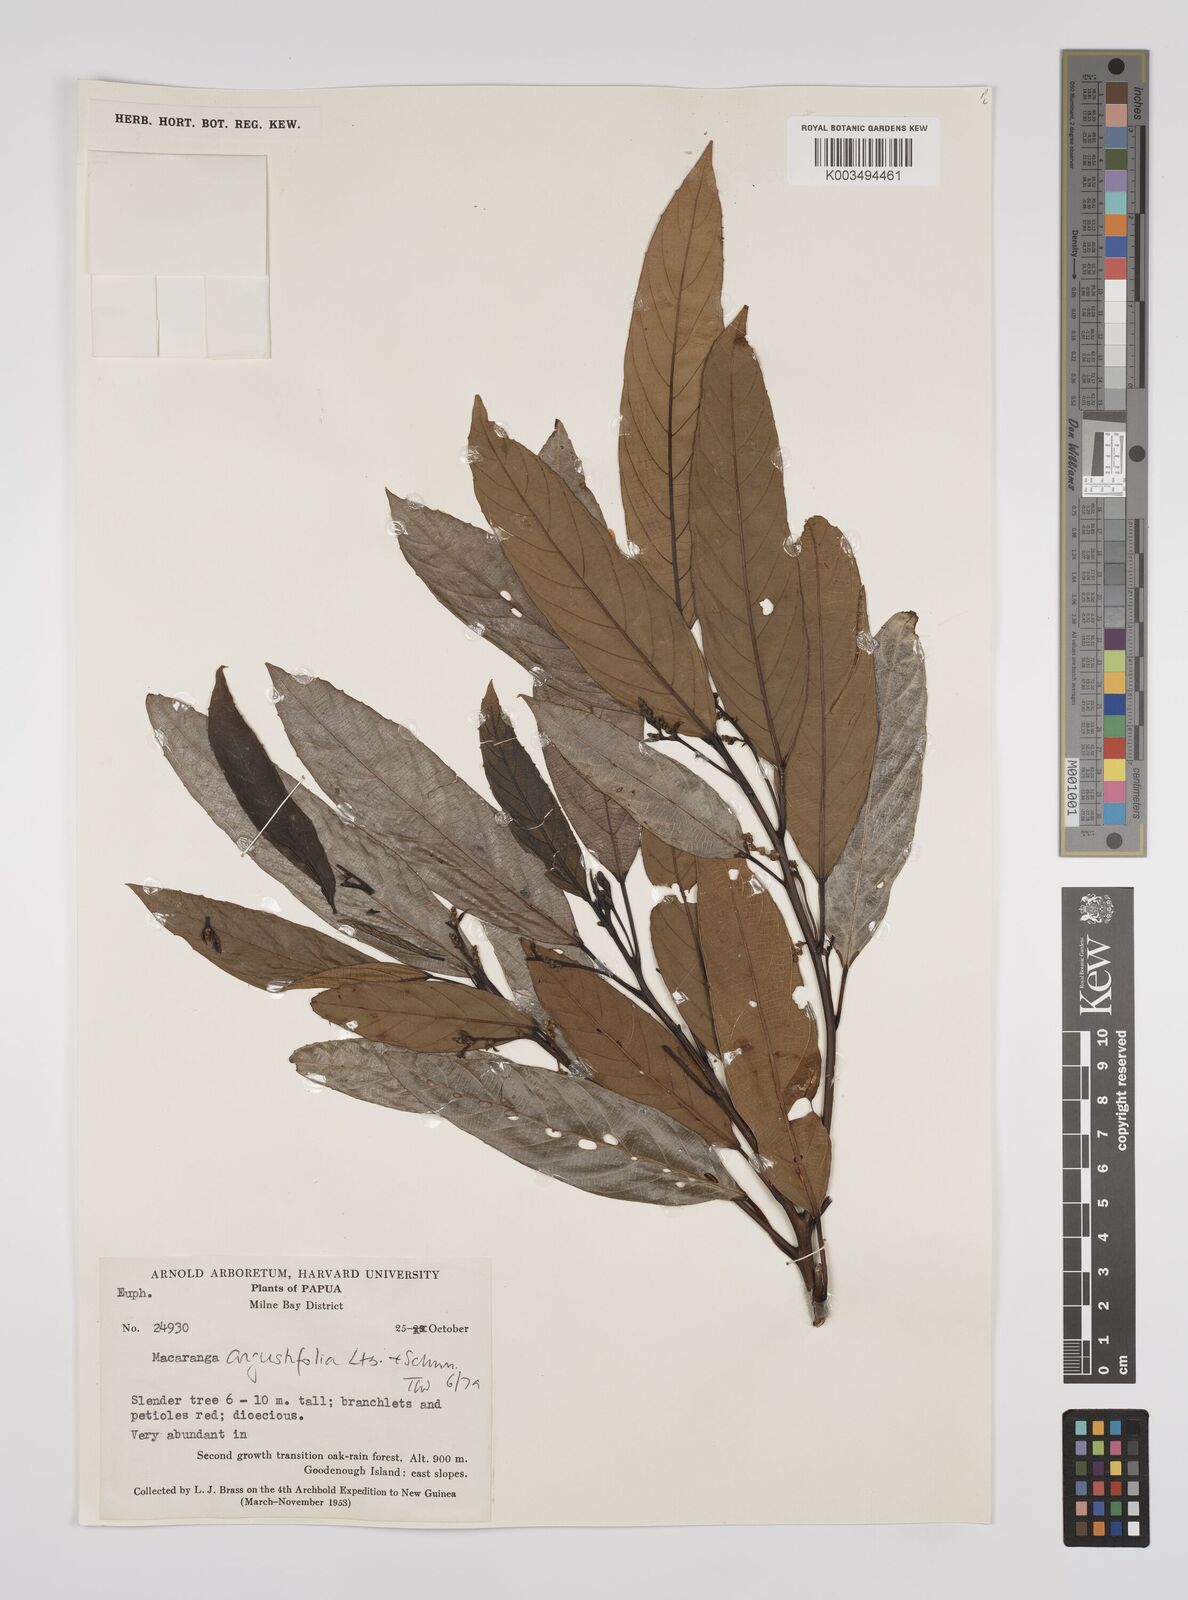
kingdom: Plantae
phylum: Tracheophyta
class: Magnoliopsida
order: Malpighiales
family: Euphorbiaceae
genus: Macaranga
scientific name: Macaranga angustifolia
